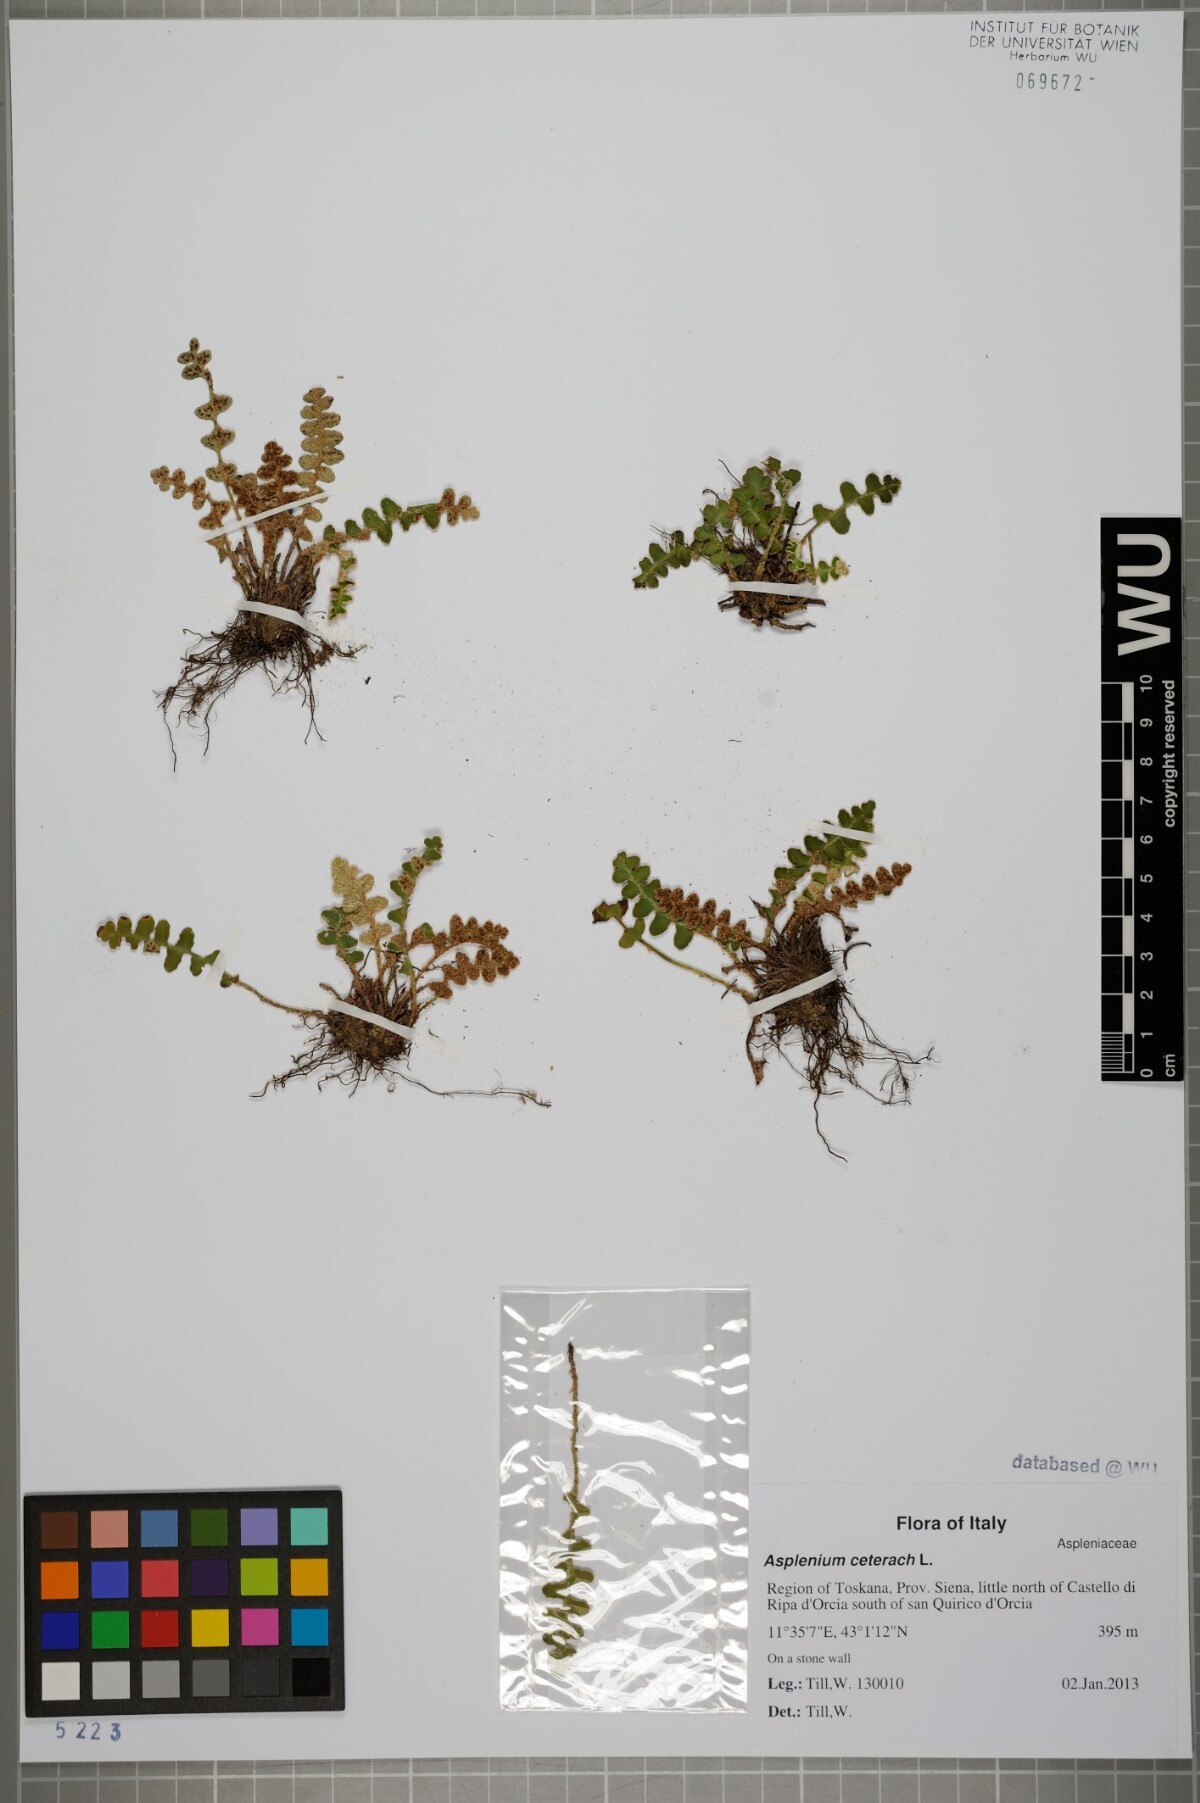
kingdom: Plantae
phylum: Tracheophyta
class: Polypodiopsida
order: Polypodiales
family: Aspleniaceae
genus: Asplenium
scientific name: Asplenium ceterach
